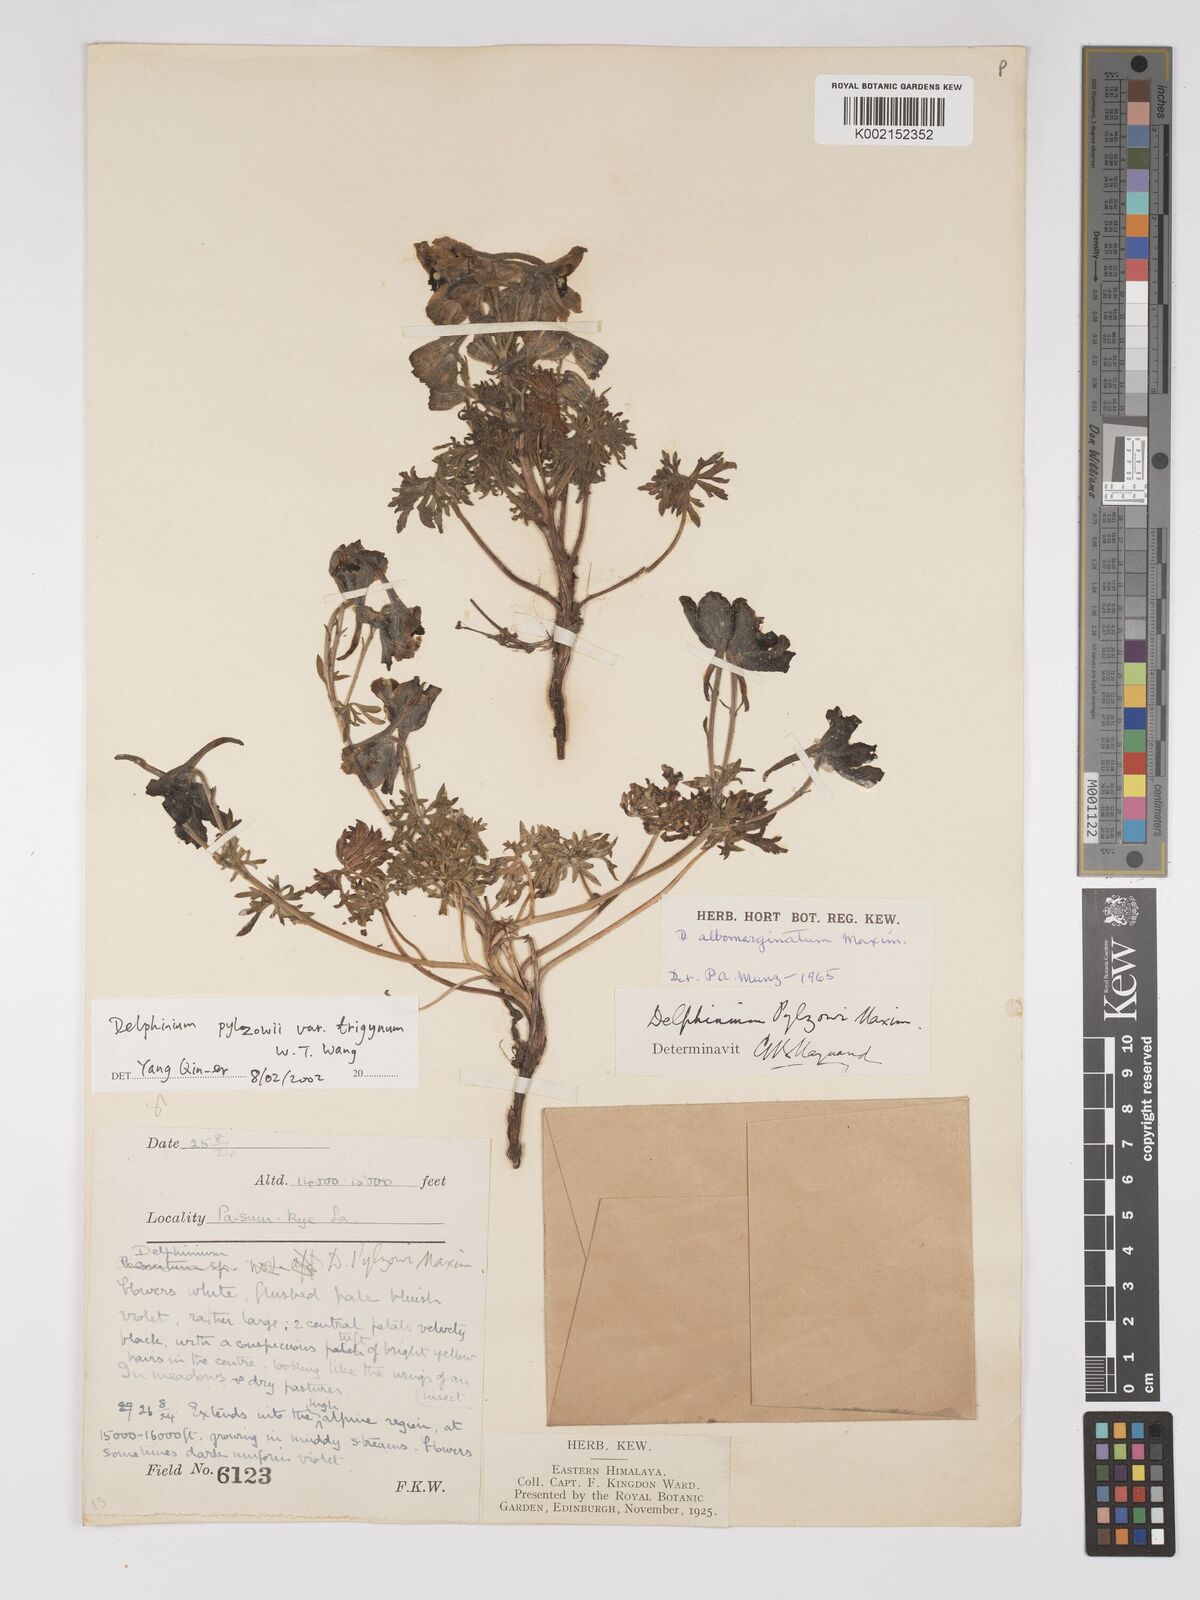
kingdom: Plantae
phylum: Tracheophyta
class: Magnoliopsida
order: Ranunculales
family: Ranunculaceae
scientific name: Ranunculaceae
